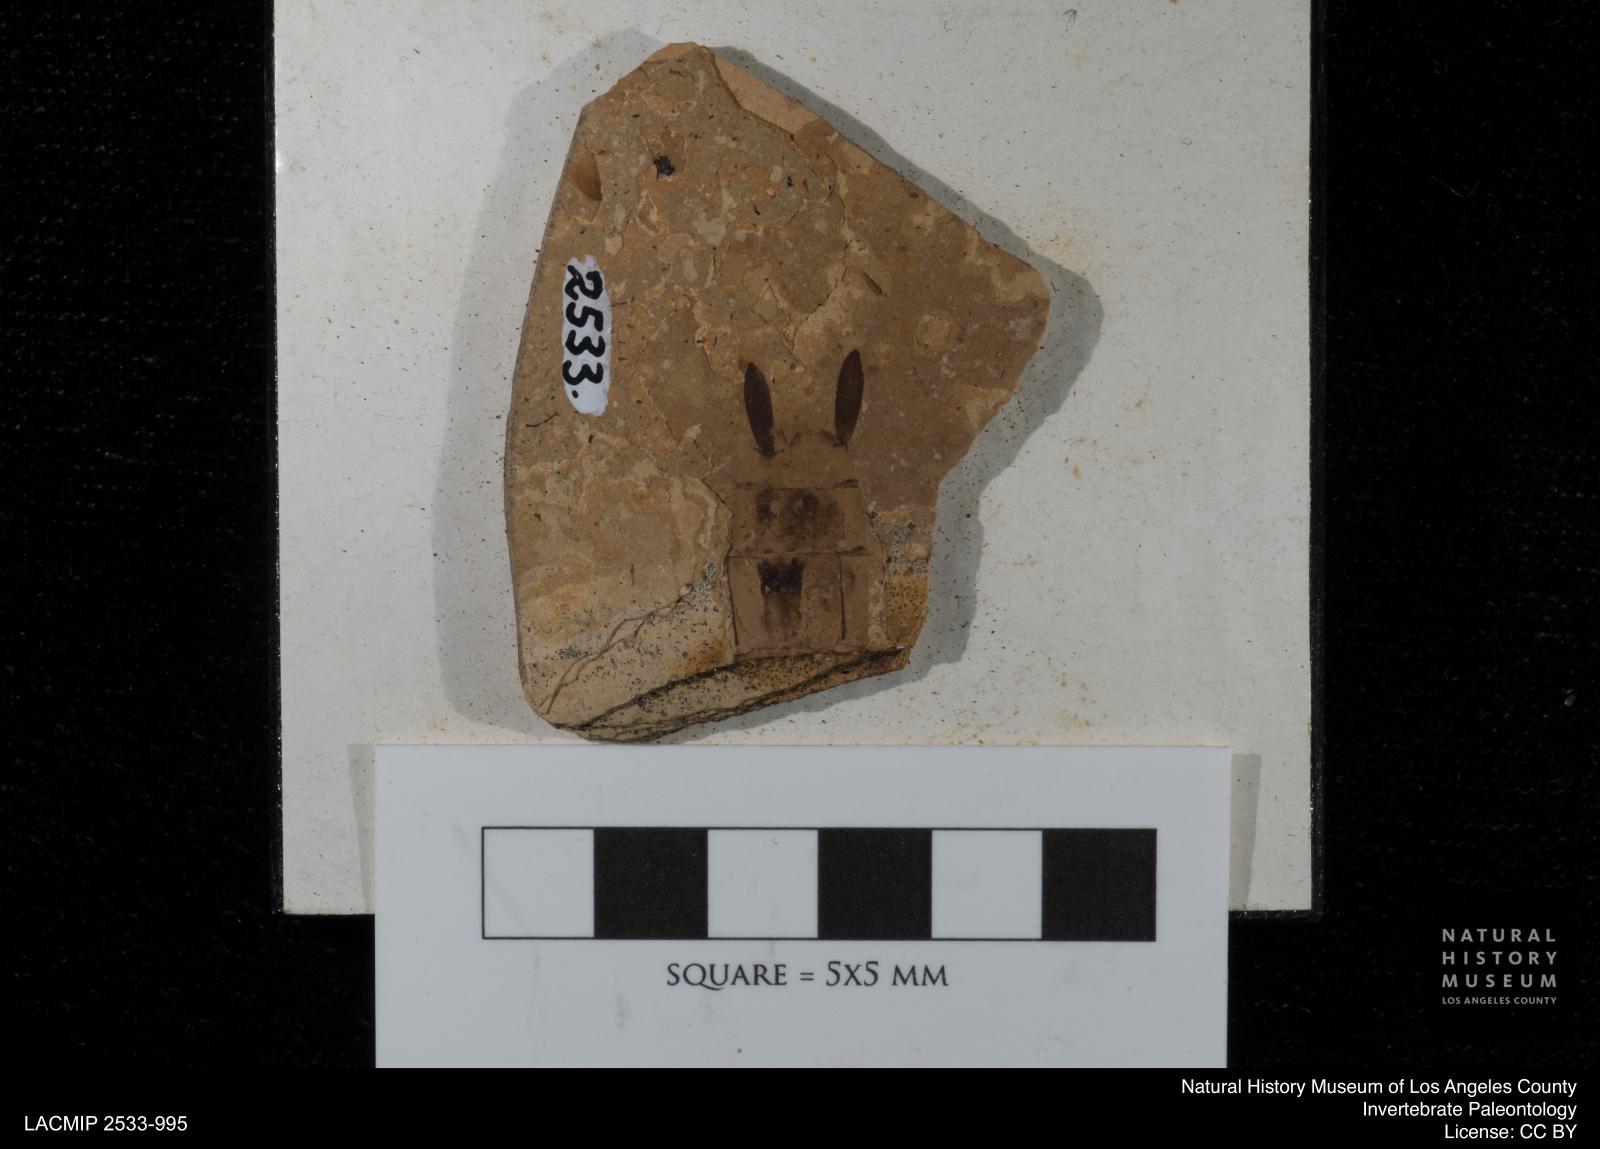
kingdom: Animalia
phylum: Arthropoda
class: Insecta
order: Odonata
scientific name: Odonata
